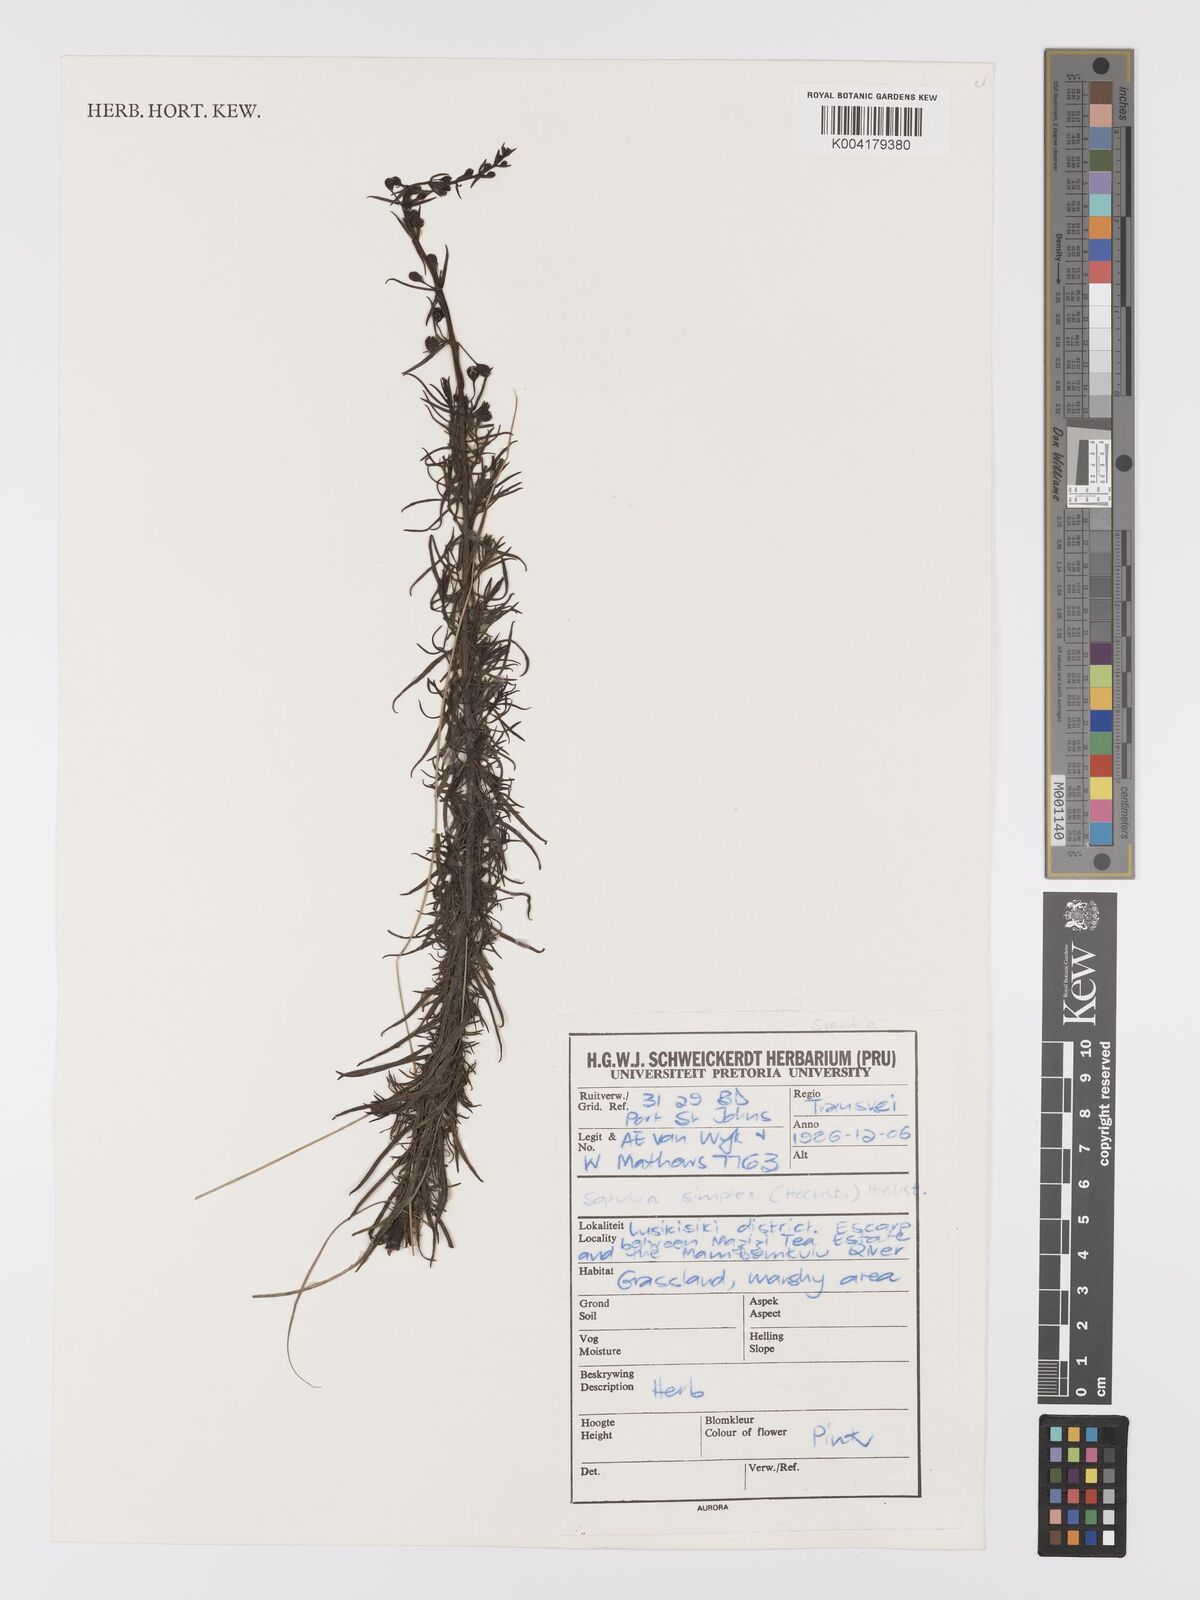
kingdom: Plantae
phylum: Tracheophyta
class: Magnoliopsida
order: Lamiales
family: Orobanchaceae
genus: Sopubia
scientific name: Sopubia simplex
